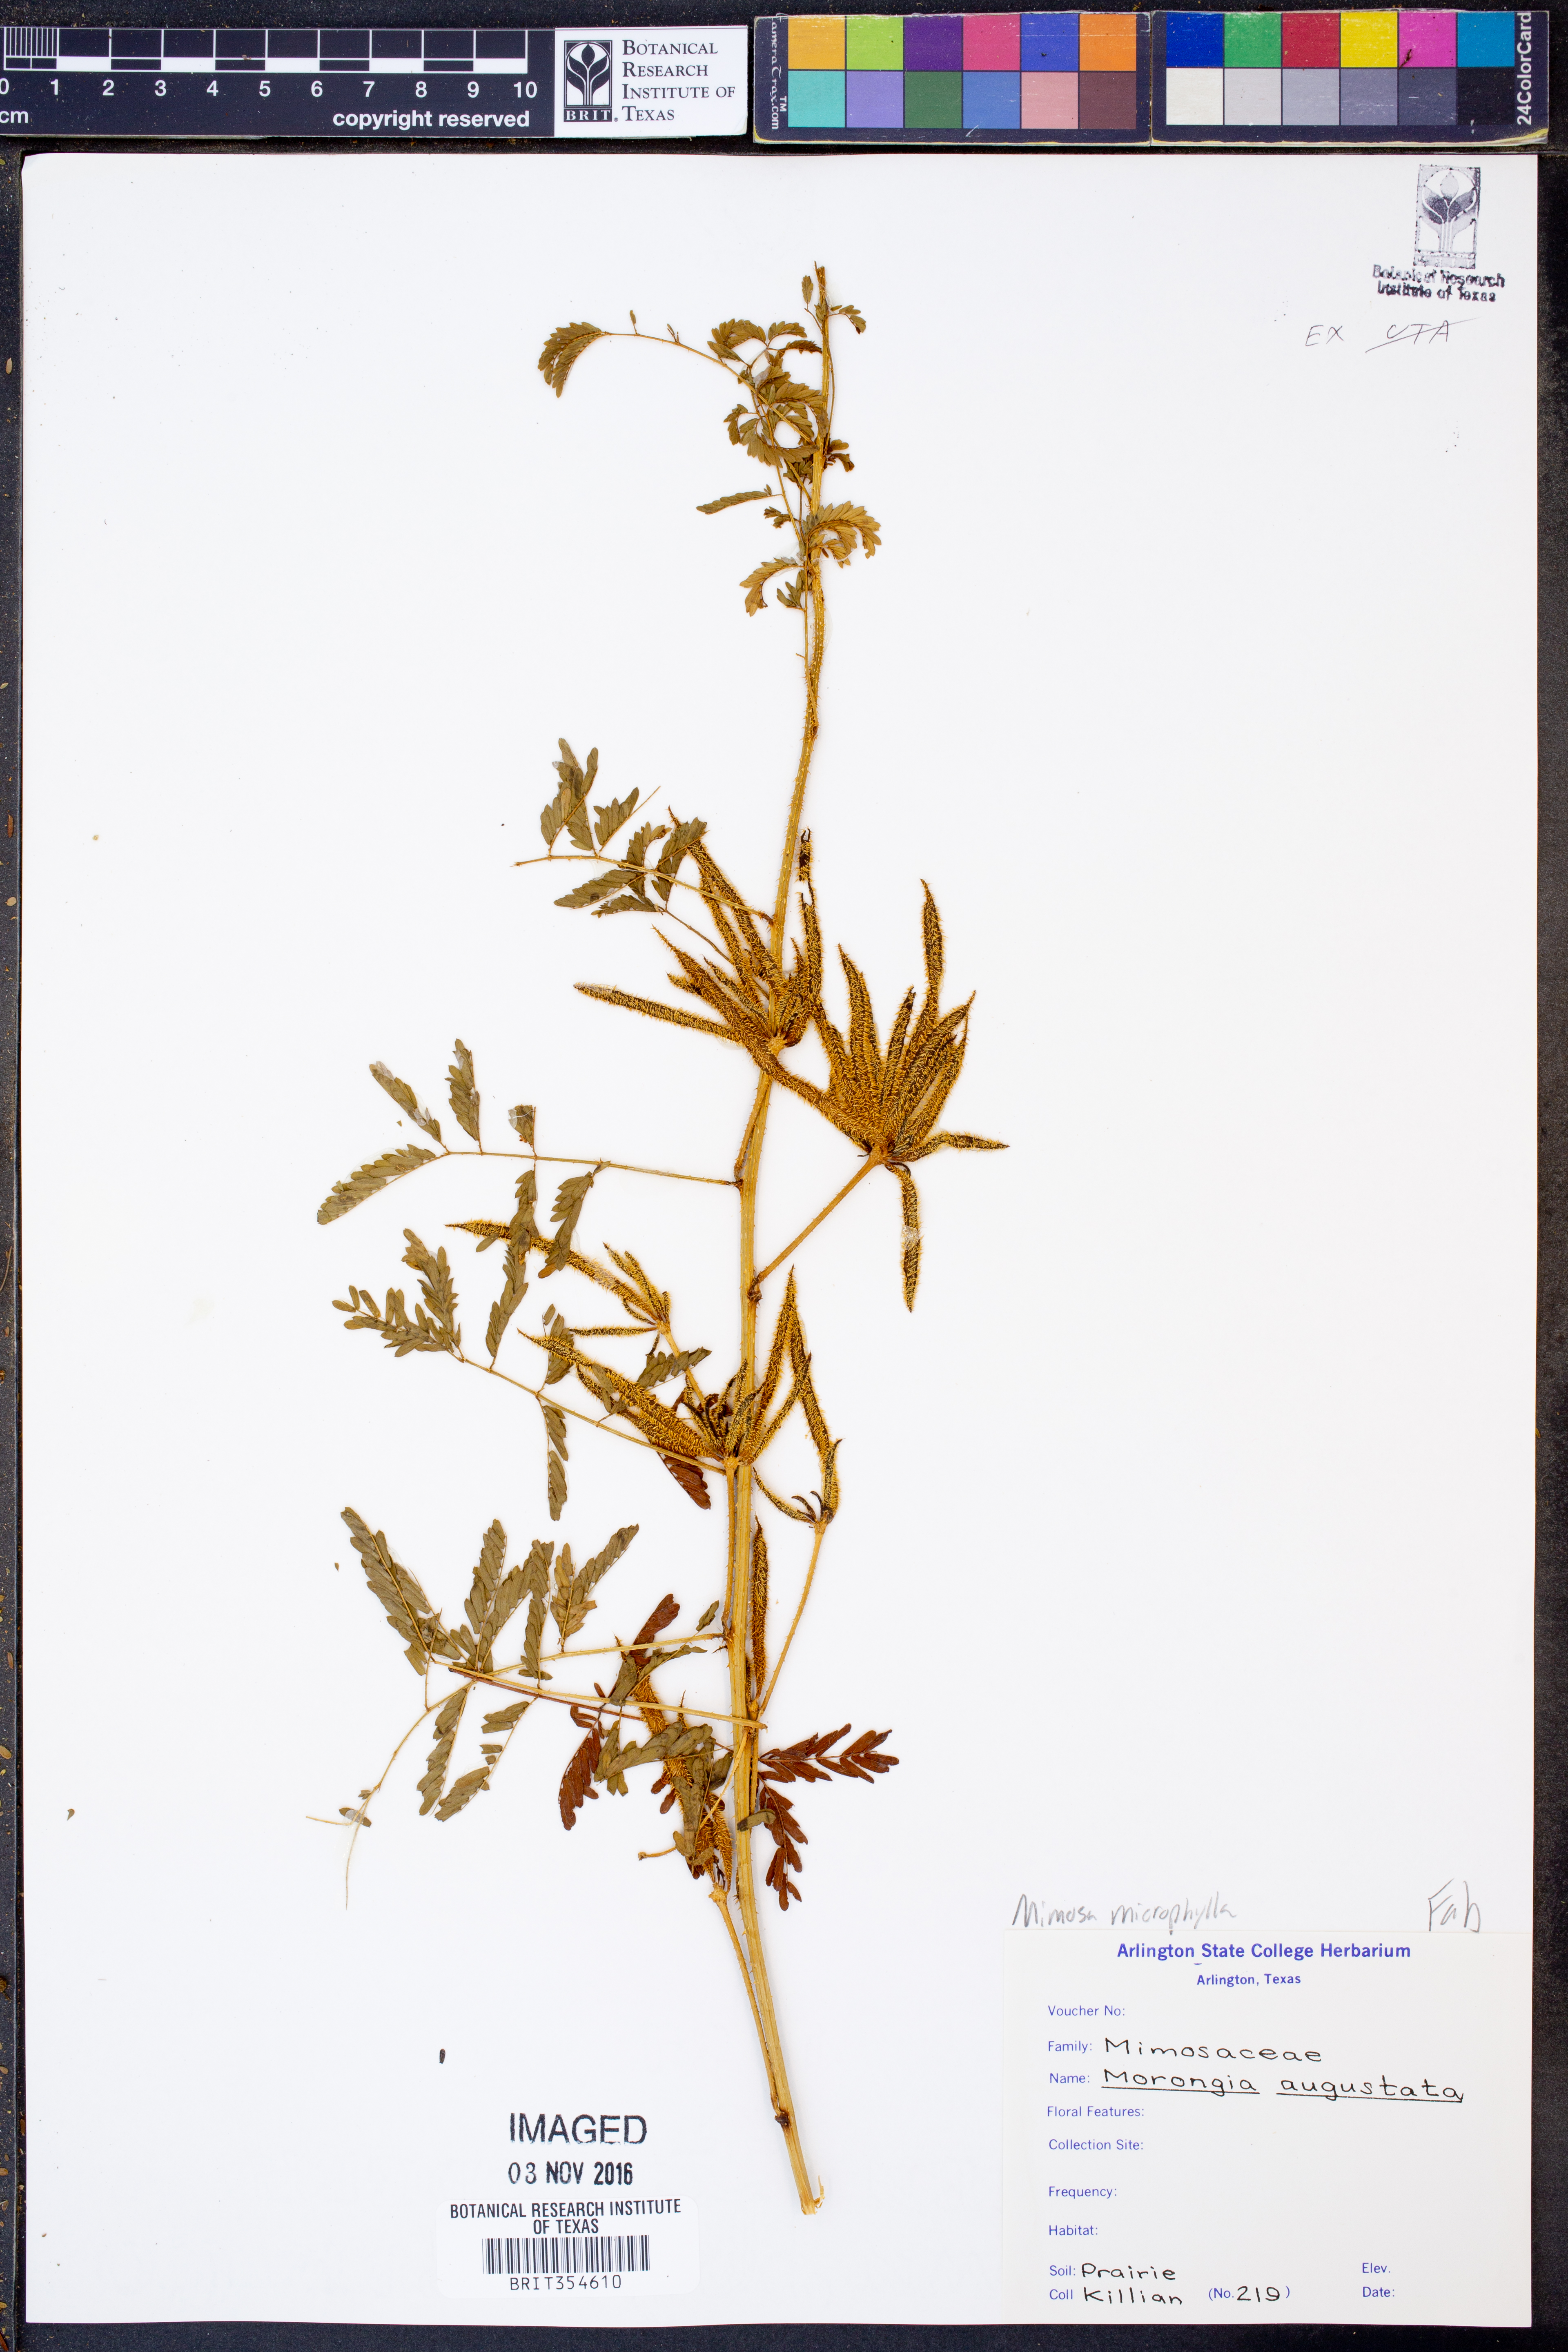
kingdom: Plantae
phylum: Tracheophyta
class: Magnoliopsida
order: Fabales
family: Fabaceae
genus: Mimosa
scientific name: Mimosa quadrivalvis
